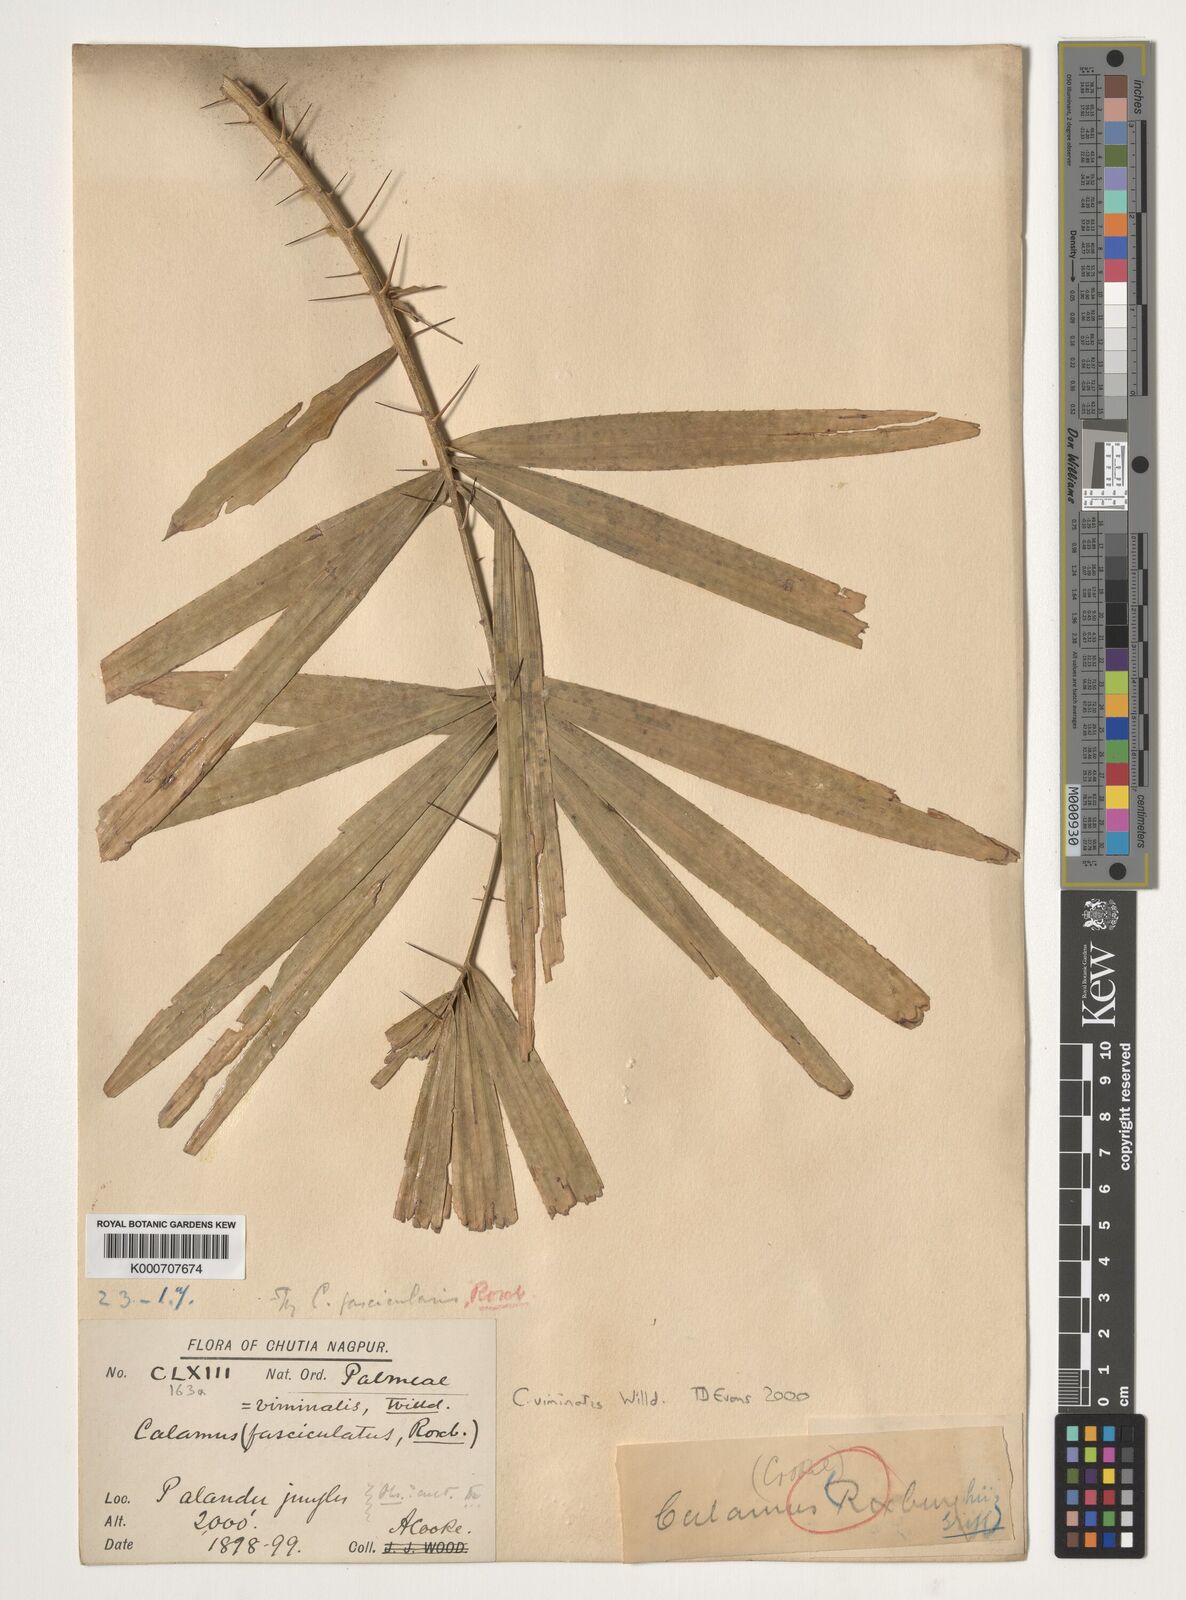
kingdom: Plantae
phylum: Tracheophyta
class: Liliopsida
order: Arecales
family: Arecaceae
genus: Calamus
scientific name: Calamus viminalis
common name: Osier-like rattan palm
